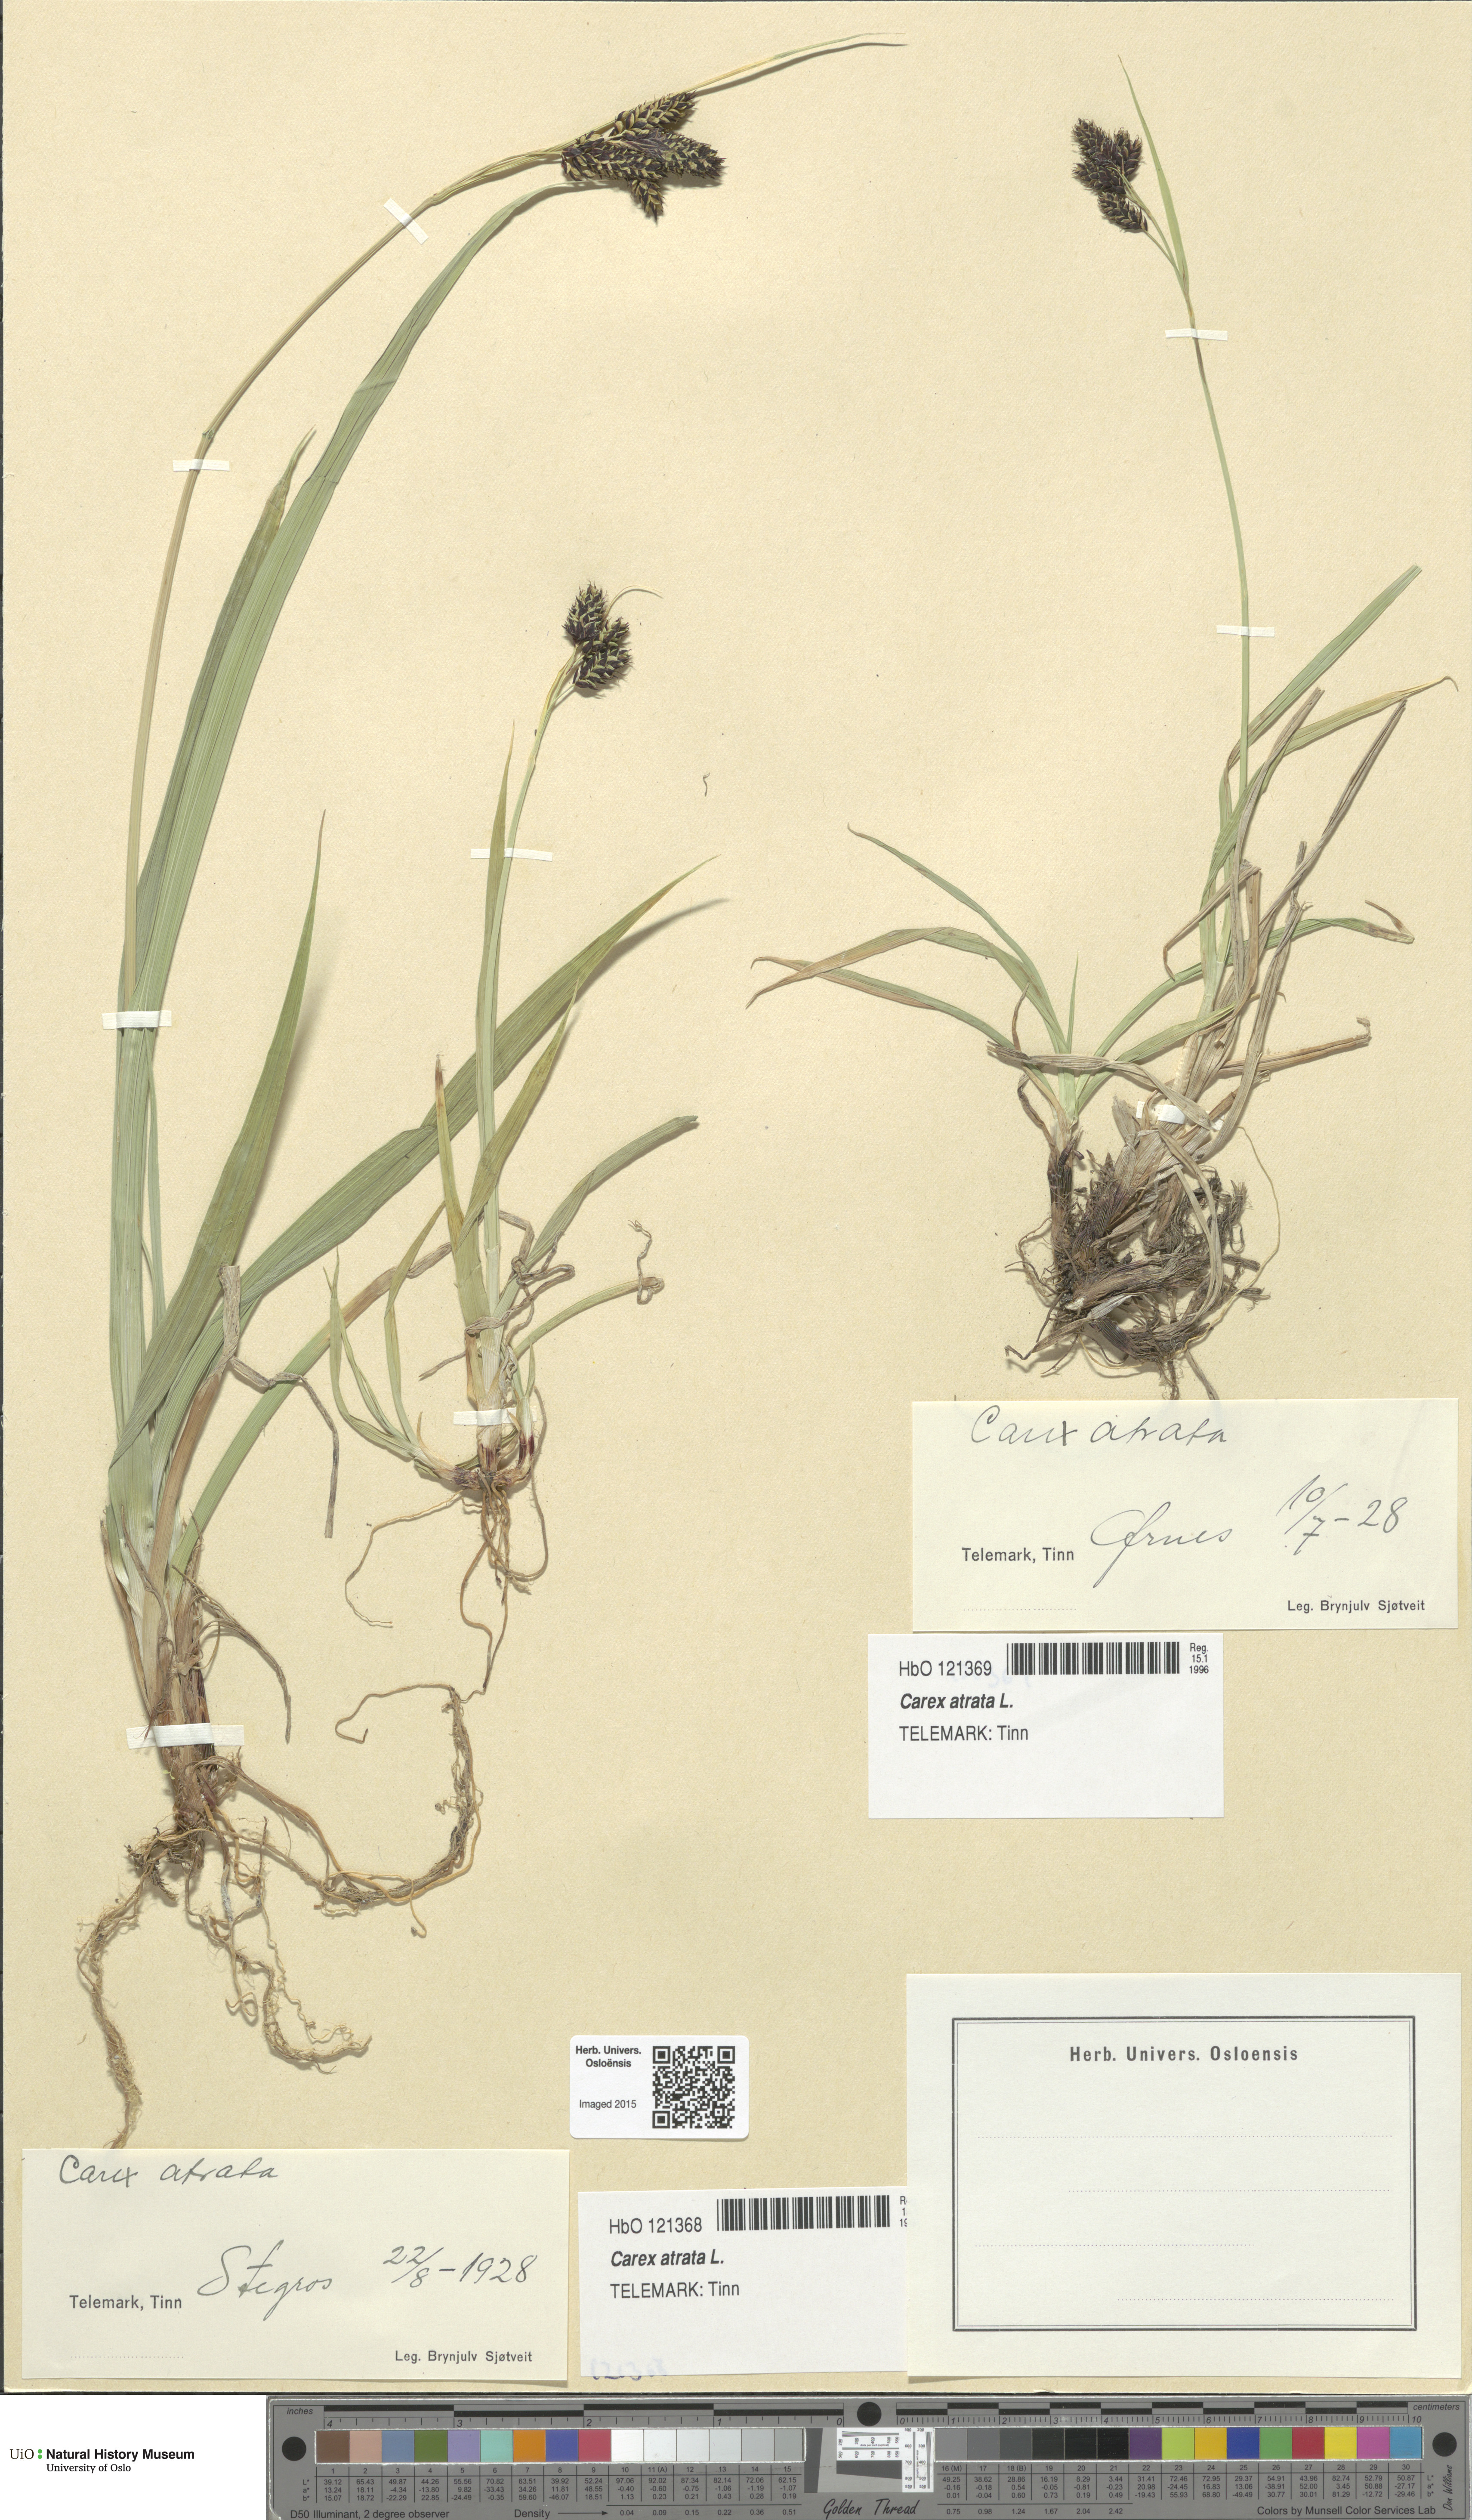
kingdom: Plantae
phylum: Tracheophyta
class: Liliopsida
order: Poales
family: Cyperaceae
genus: Carex
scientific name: Carex atrata
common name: Black alpine sedge
